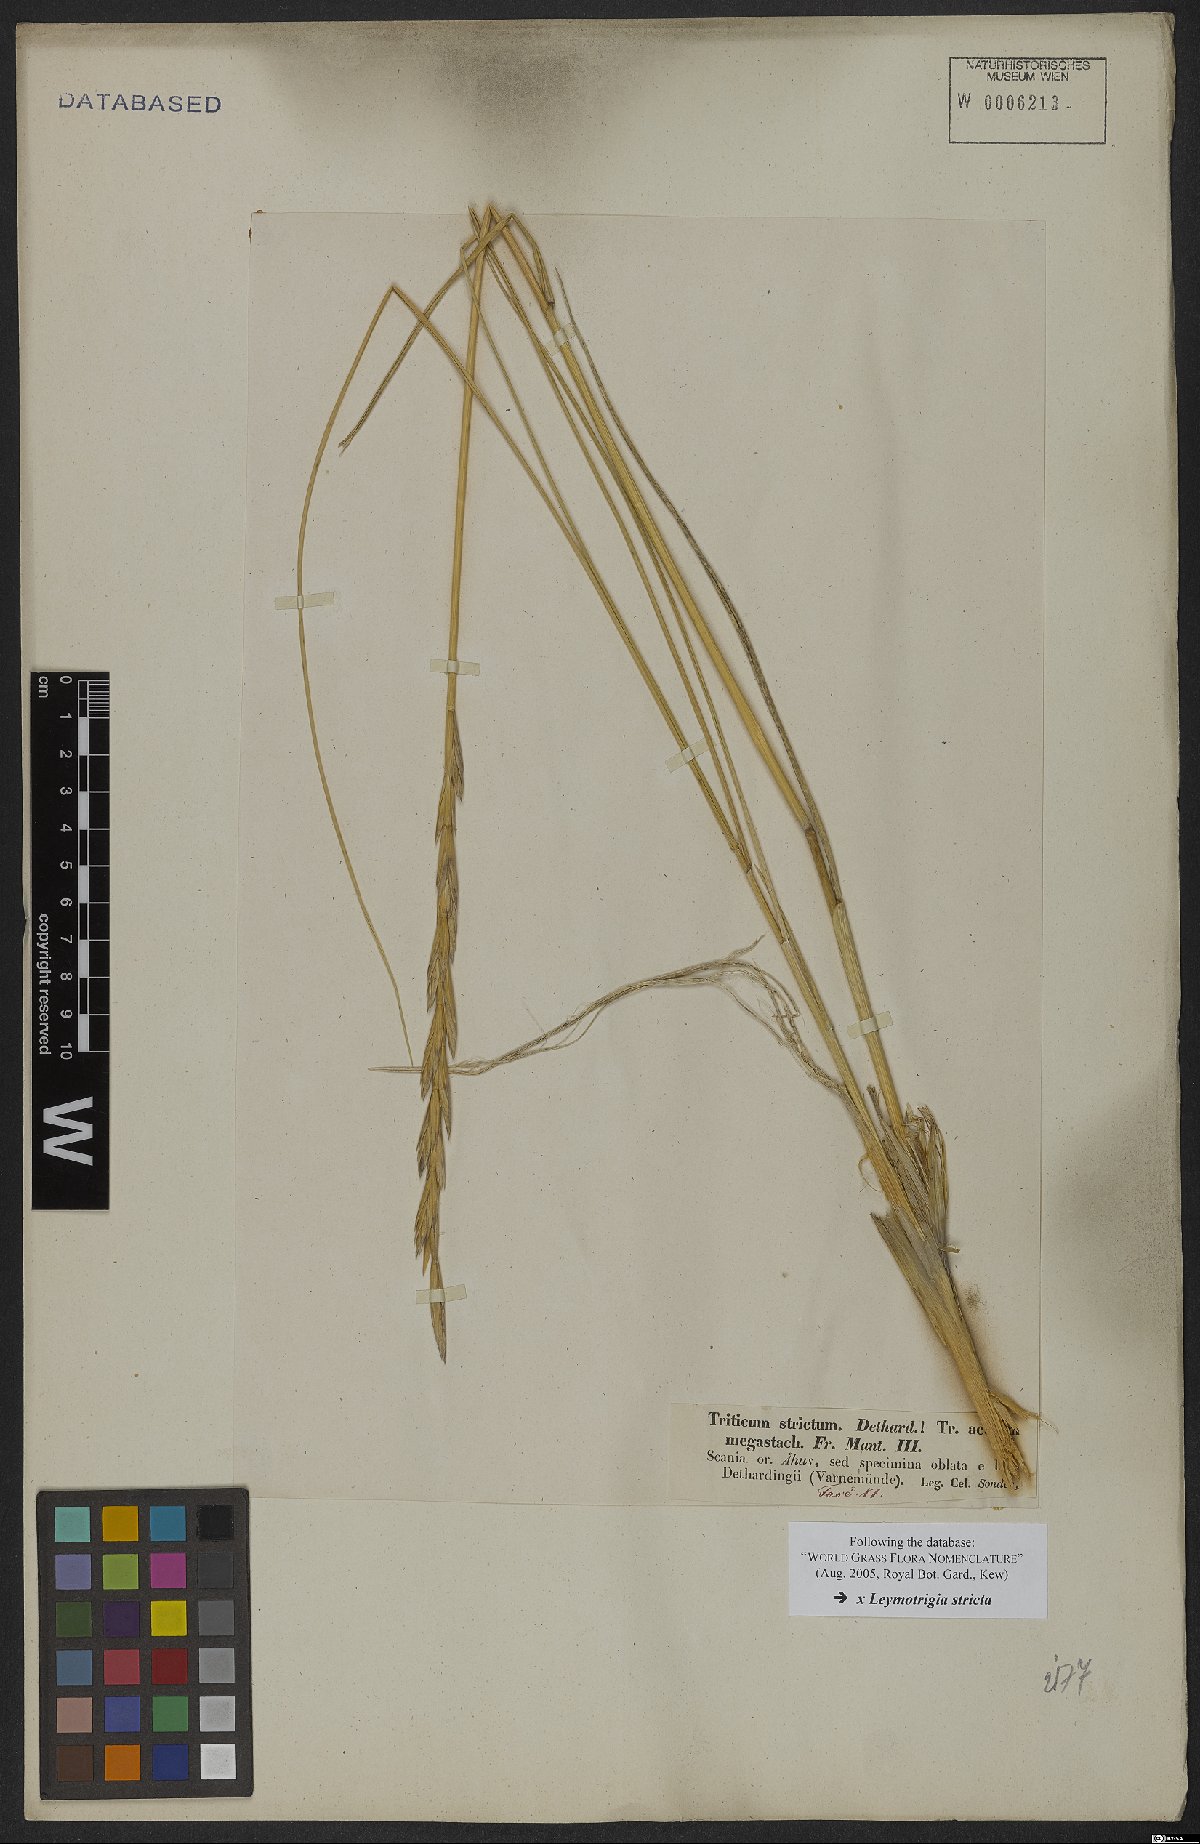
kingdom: Plantae
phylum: Tracheophyta
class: Liliopsida
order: Poales
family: Poaceae
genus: Elyleymus
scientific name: Elyleymus strictus
